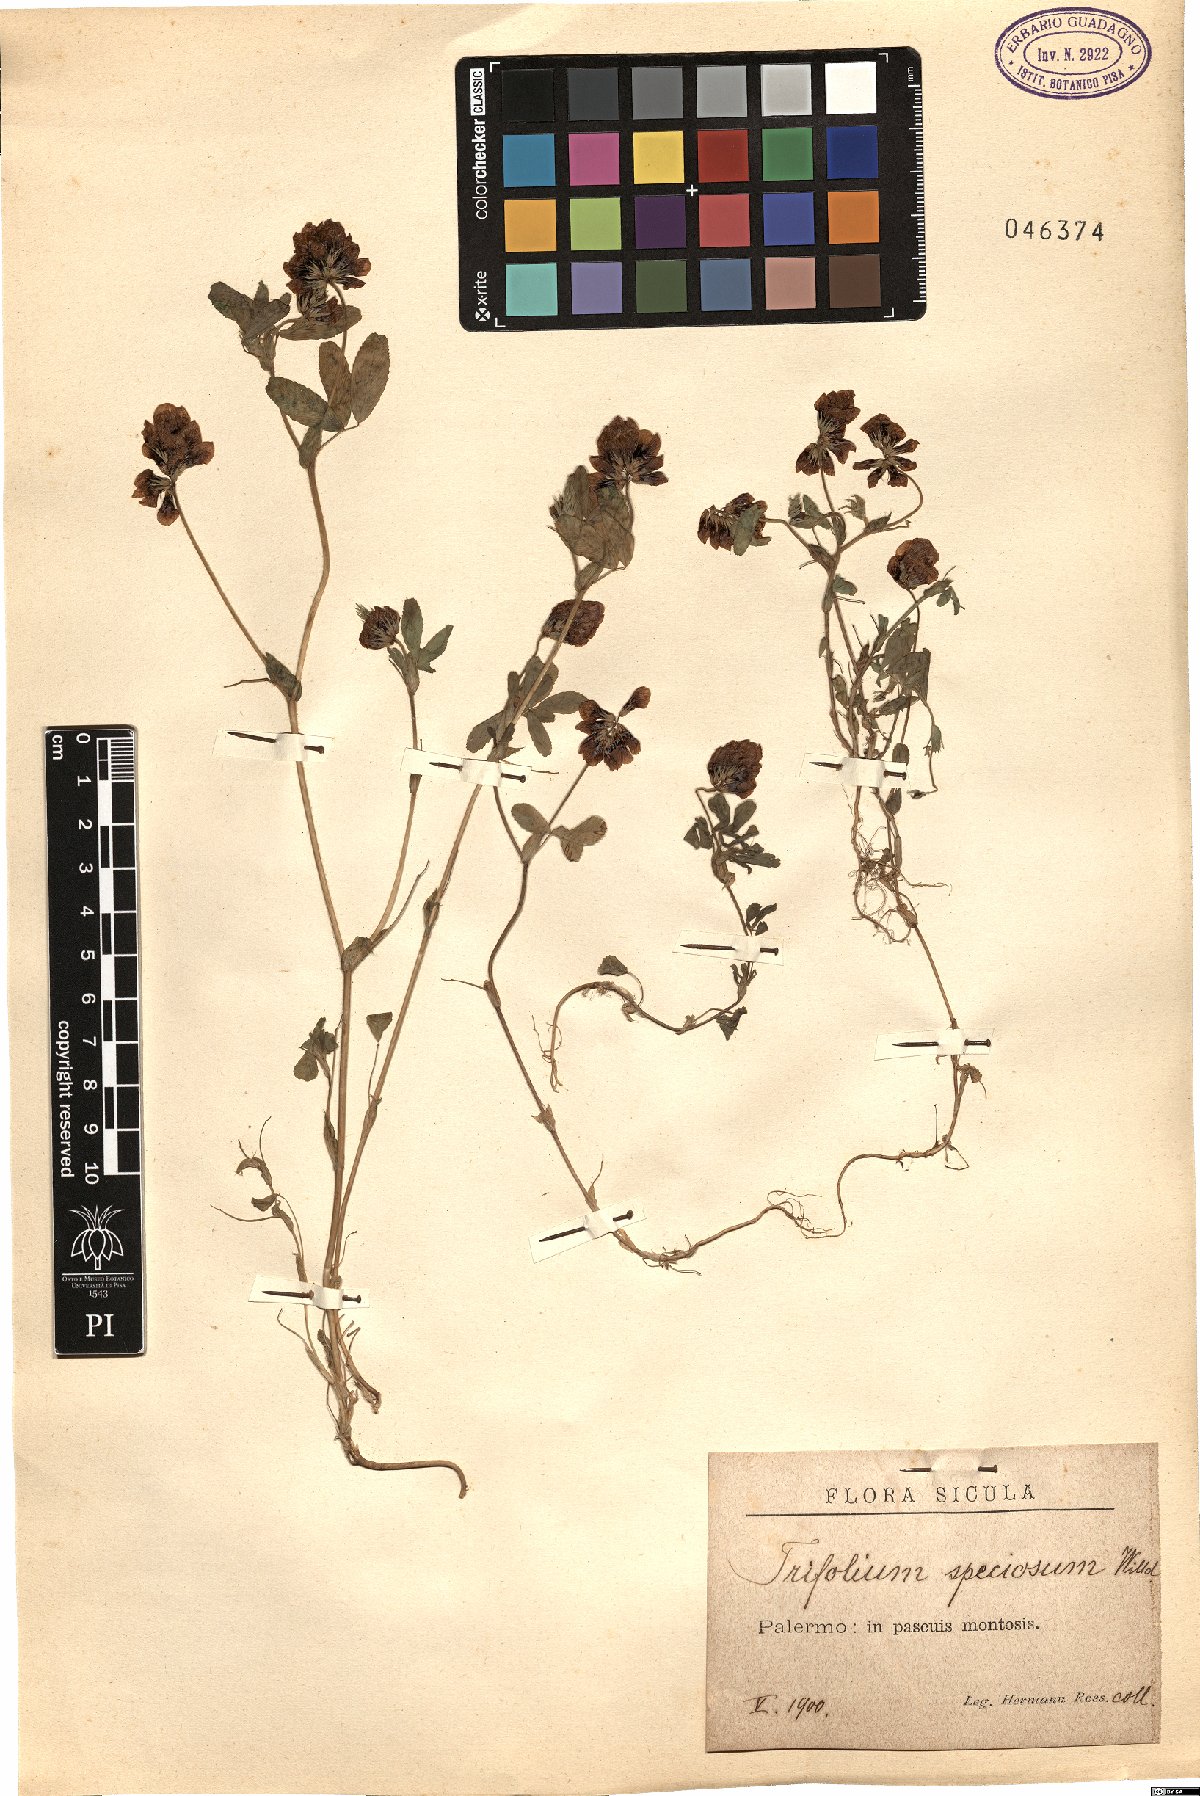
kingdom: Plantae
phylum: Tracheophyta
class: Magnoliopsida
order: Fabales
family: Fabaceae
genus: Trifolium
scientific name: Trifolium grandiflorum
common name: Large-flower hop clover
